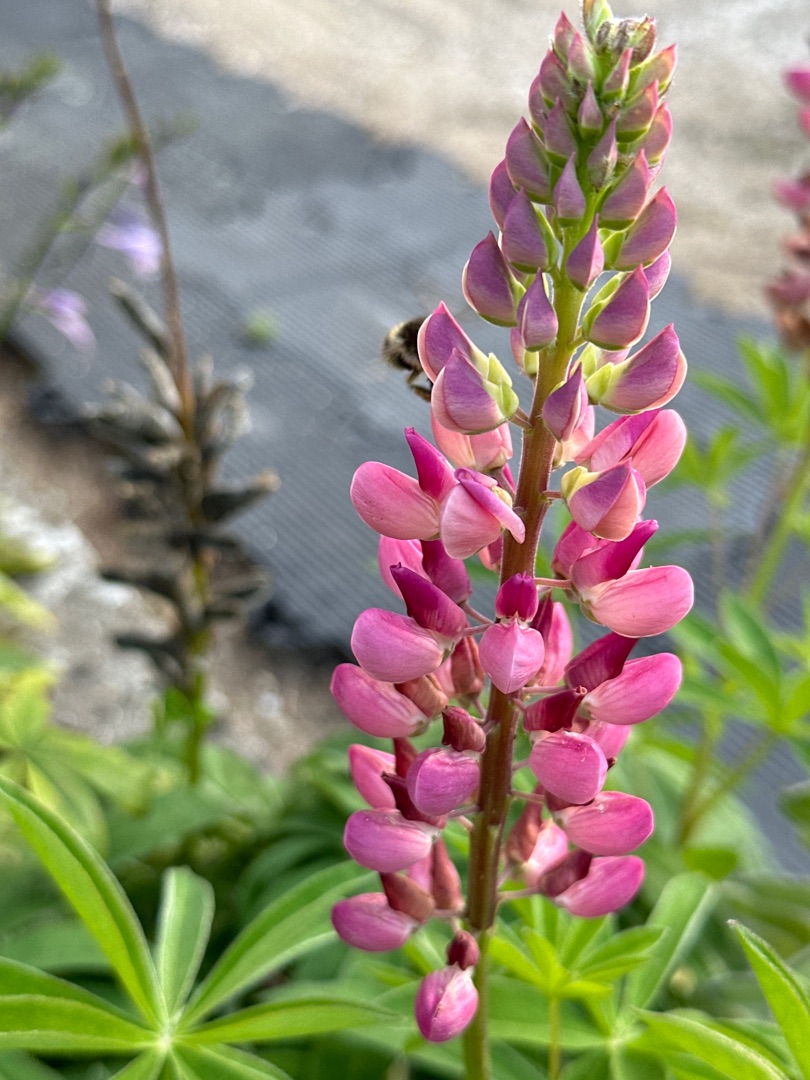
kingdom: Plantae
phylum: Tracheophyta
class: Magnoliopsida
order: Fabales
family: Fabaceae
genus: Lupinus
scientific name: Lupinus regalis
